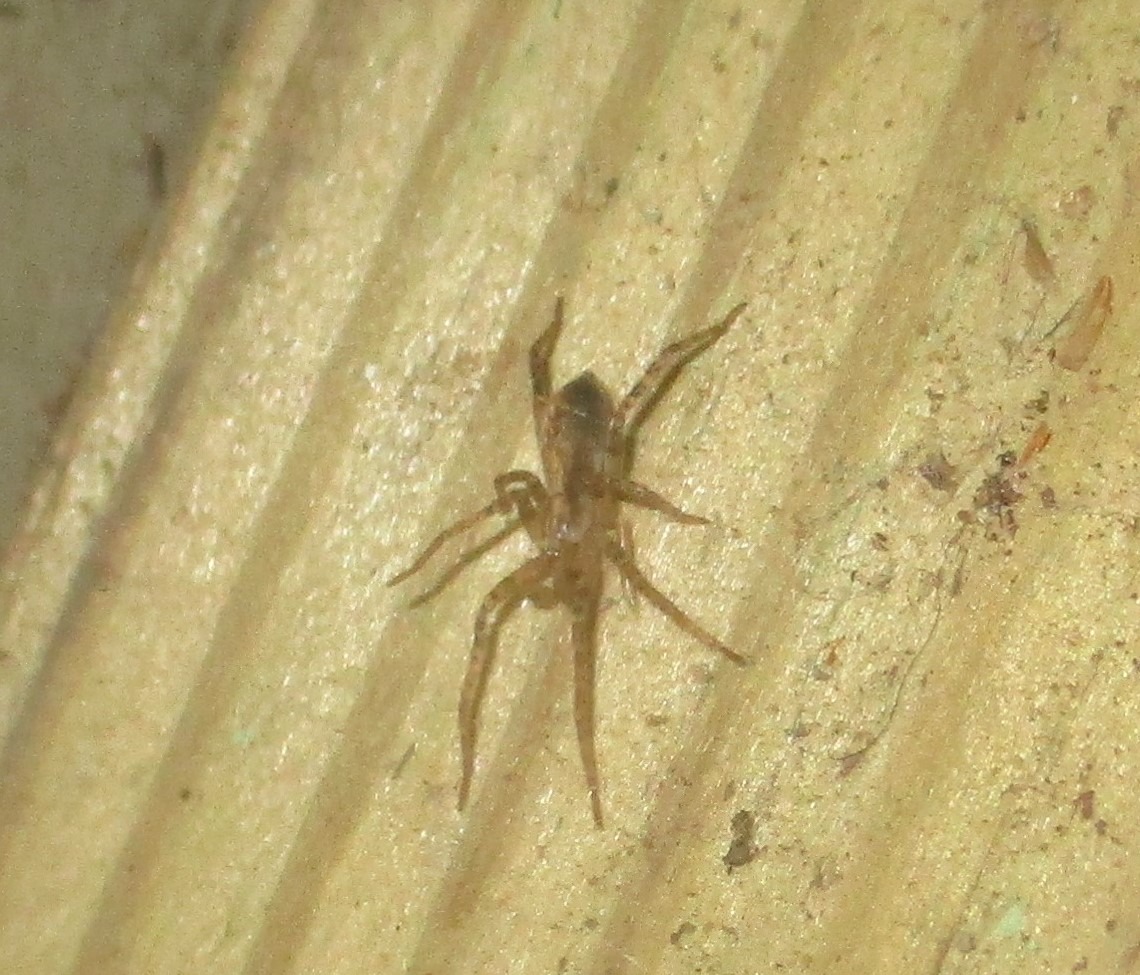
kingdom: Animalia
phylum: Arthropoda
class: Arachnida
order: Araneae
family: Anyphaenidae
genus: Anyphaena
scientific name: Anyphaena accentuata
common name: Summeedderkop
